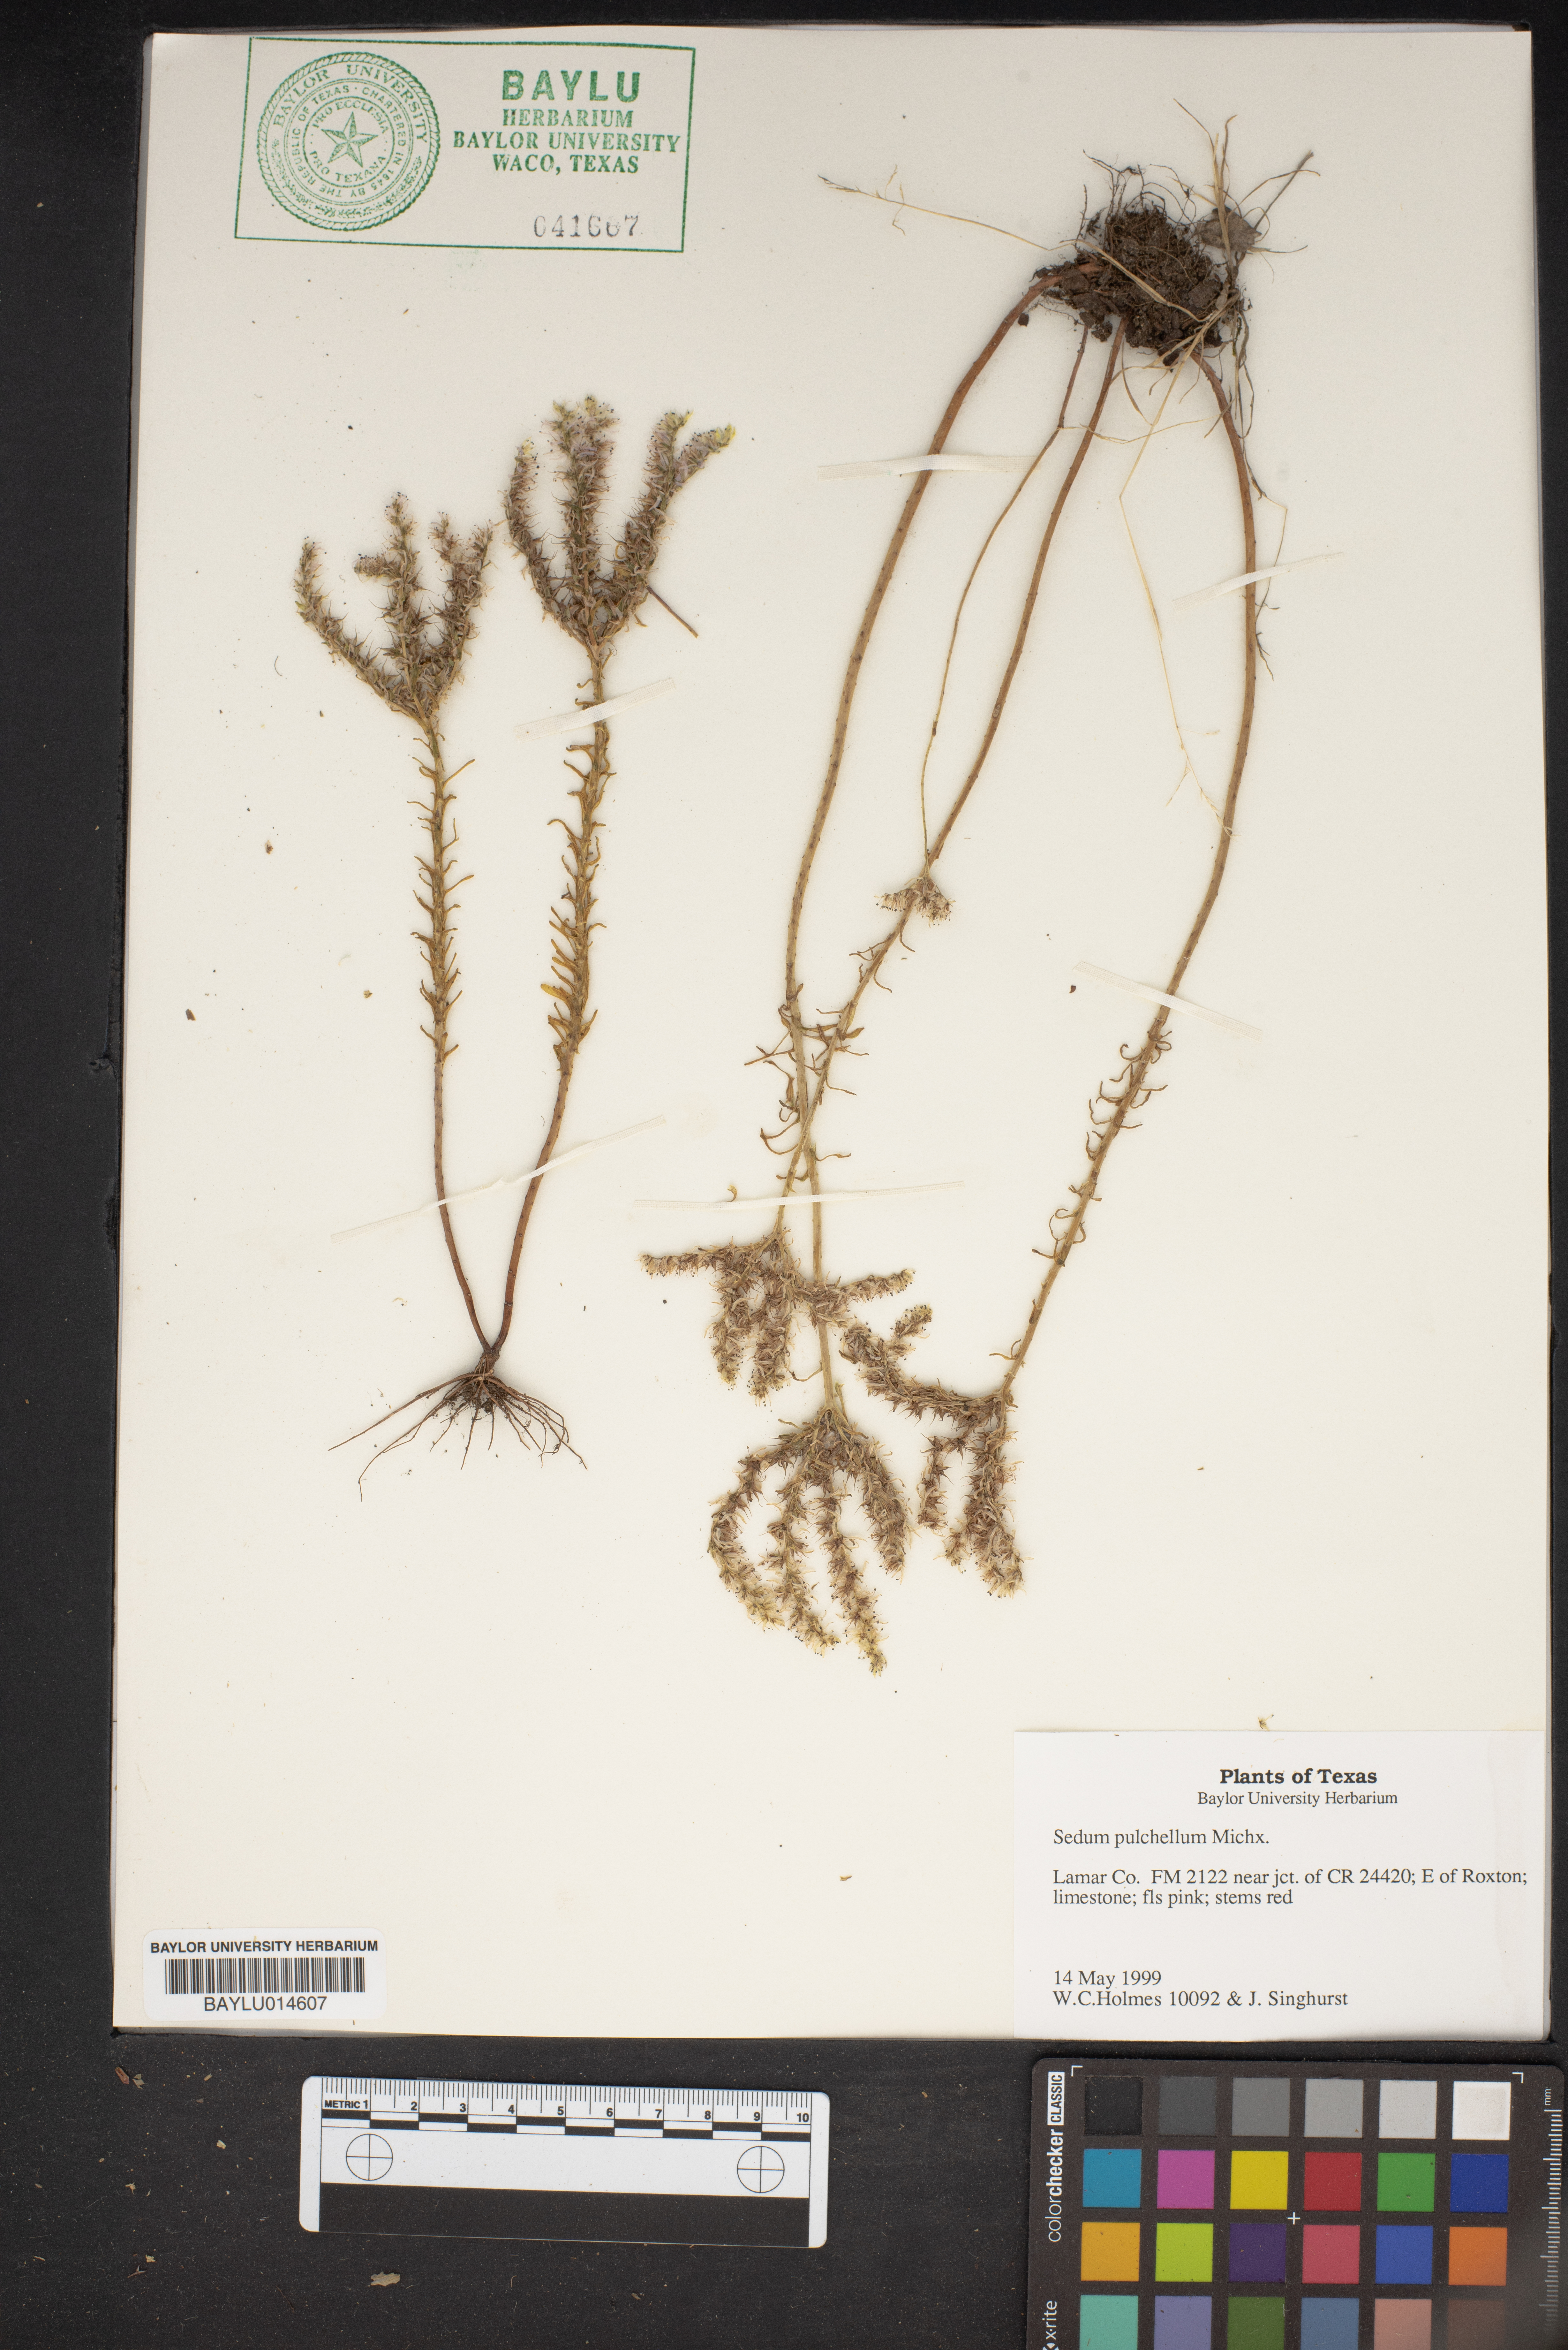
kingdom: Plantae
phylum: Tracheophyta
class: Magnoliopsida
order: Saxifragales
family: Crassulaceae
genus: Sedum
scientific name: Sedum pulchellum
